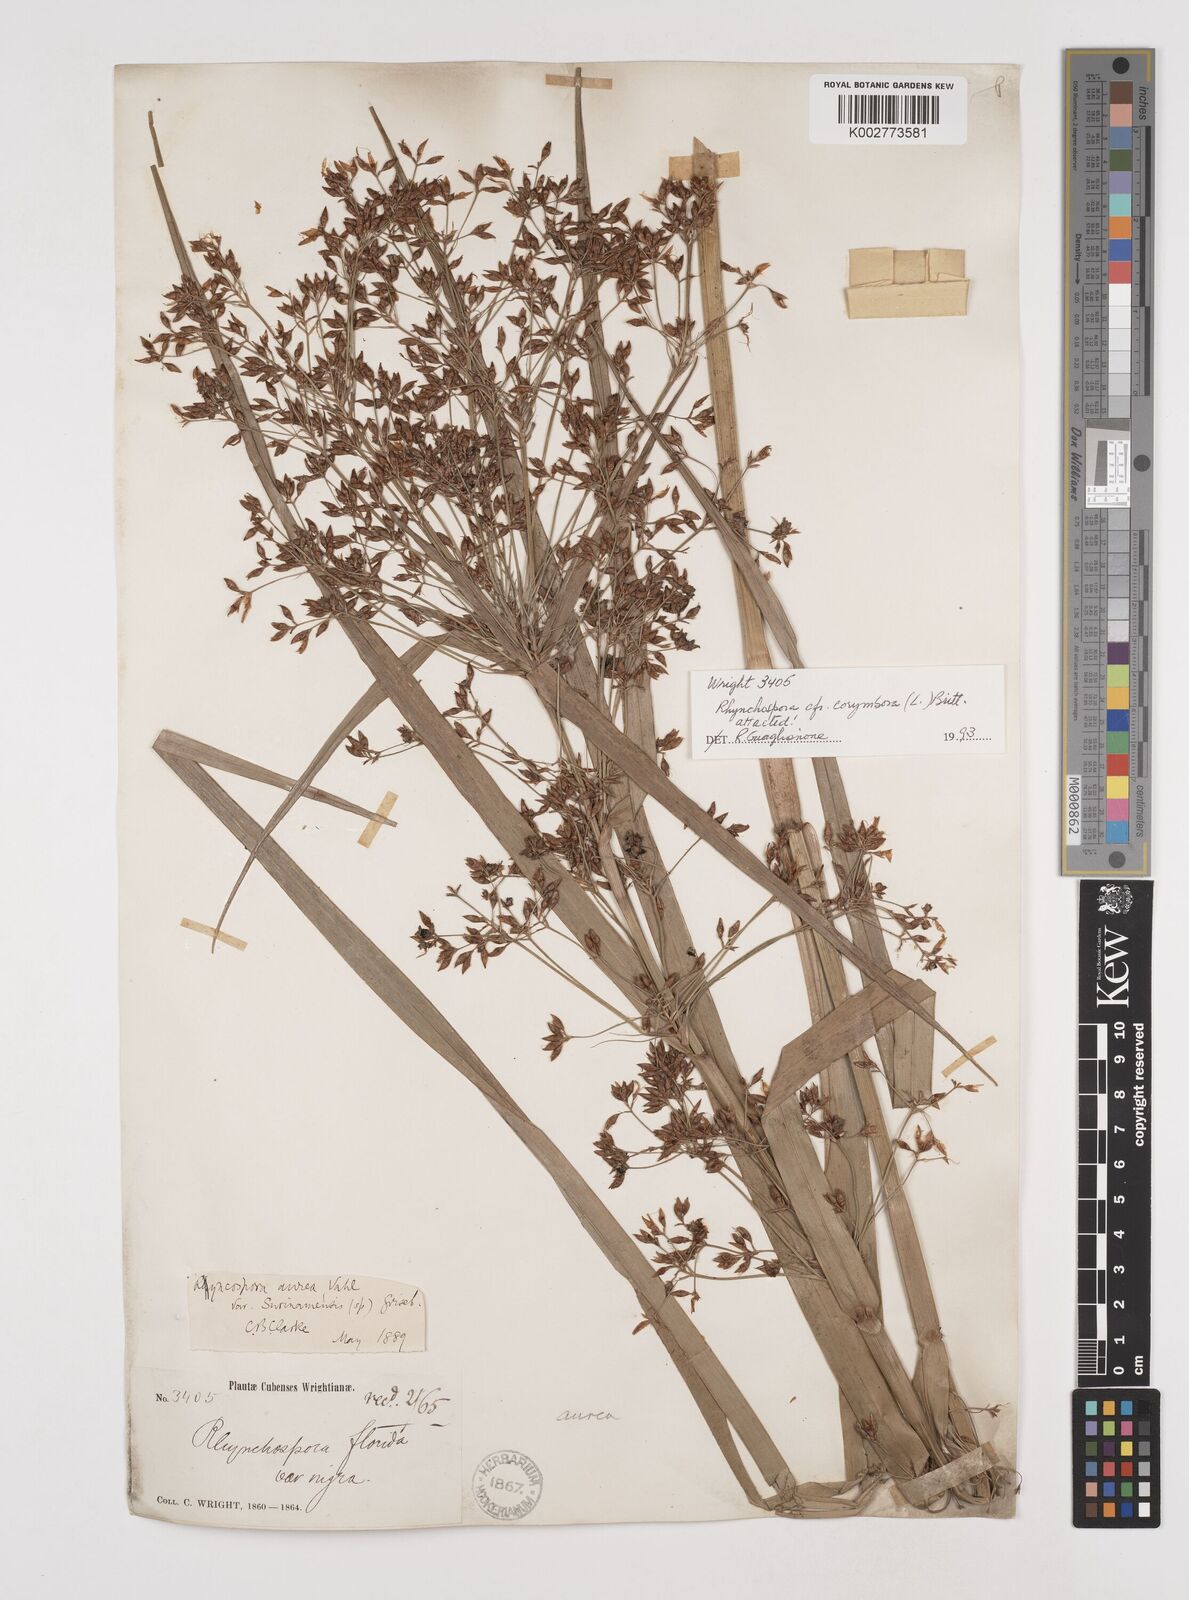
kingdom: Plantae
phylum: Tracheophyta
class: Liliopsida
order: Poales
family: Cyperaceae
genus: Rhynchospora
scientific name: Rhynchospora corymbosa
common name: Golden beak sedge
